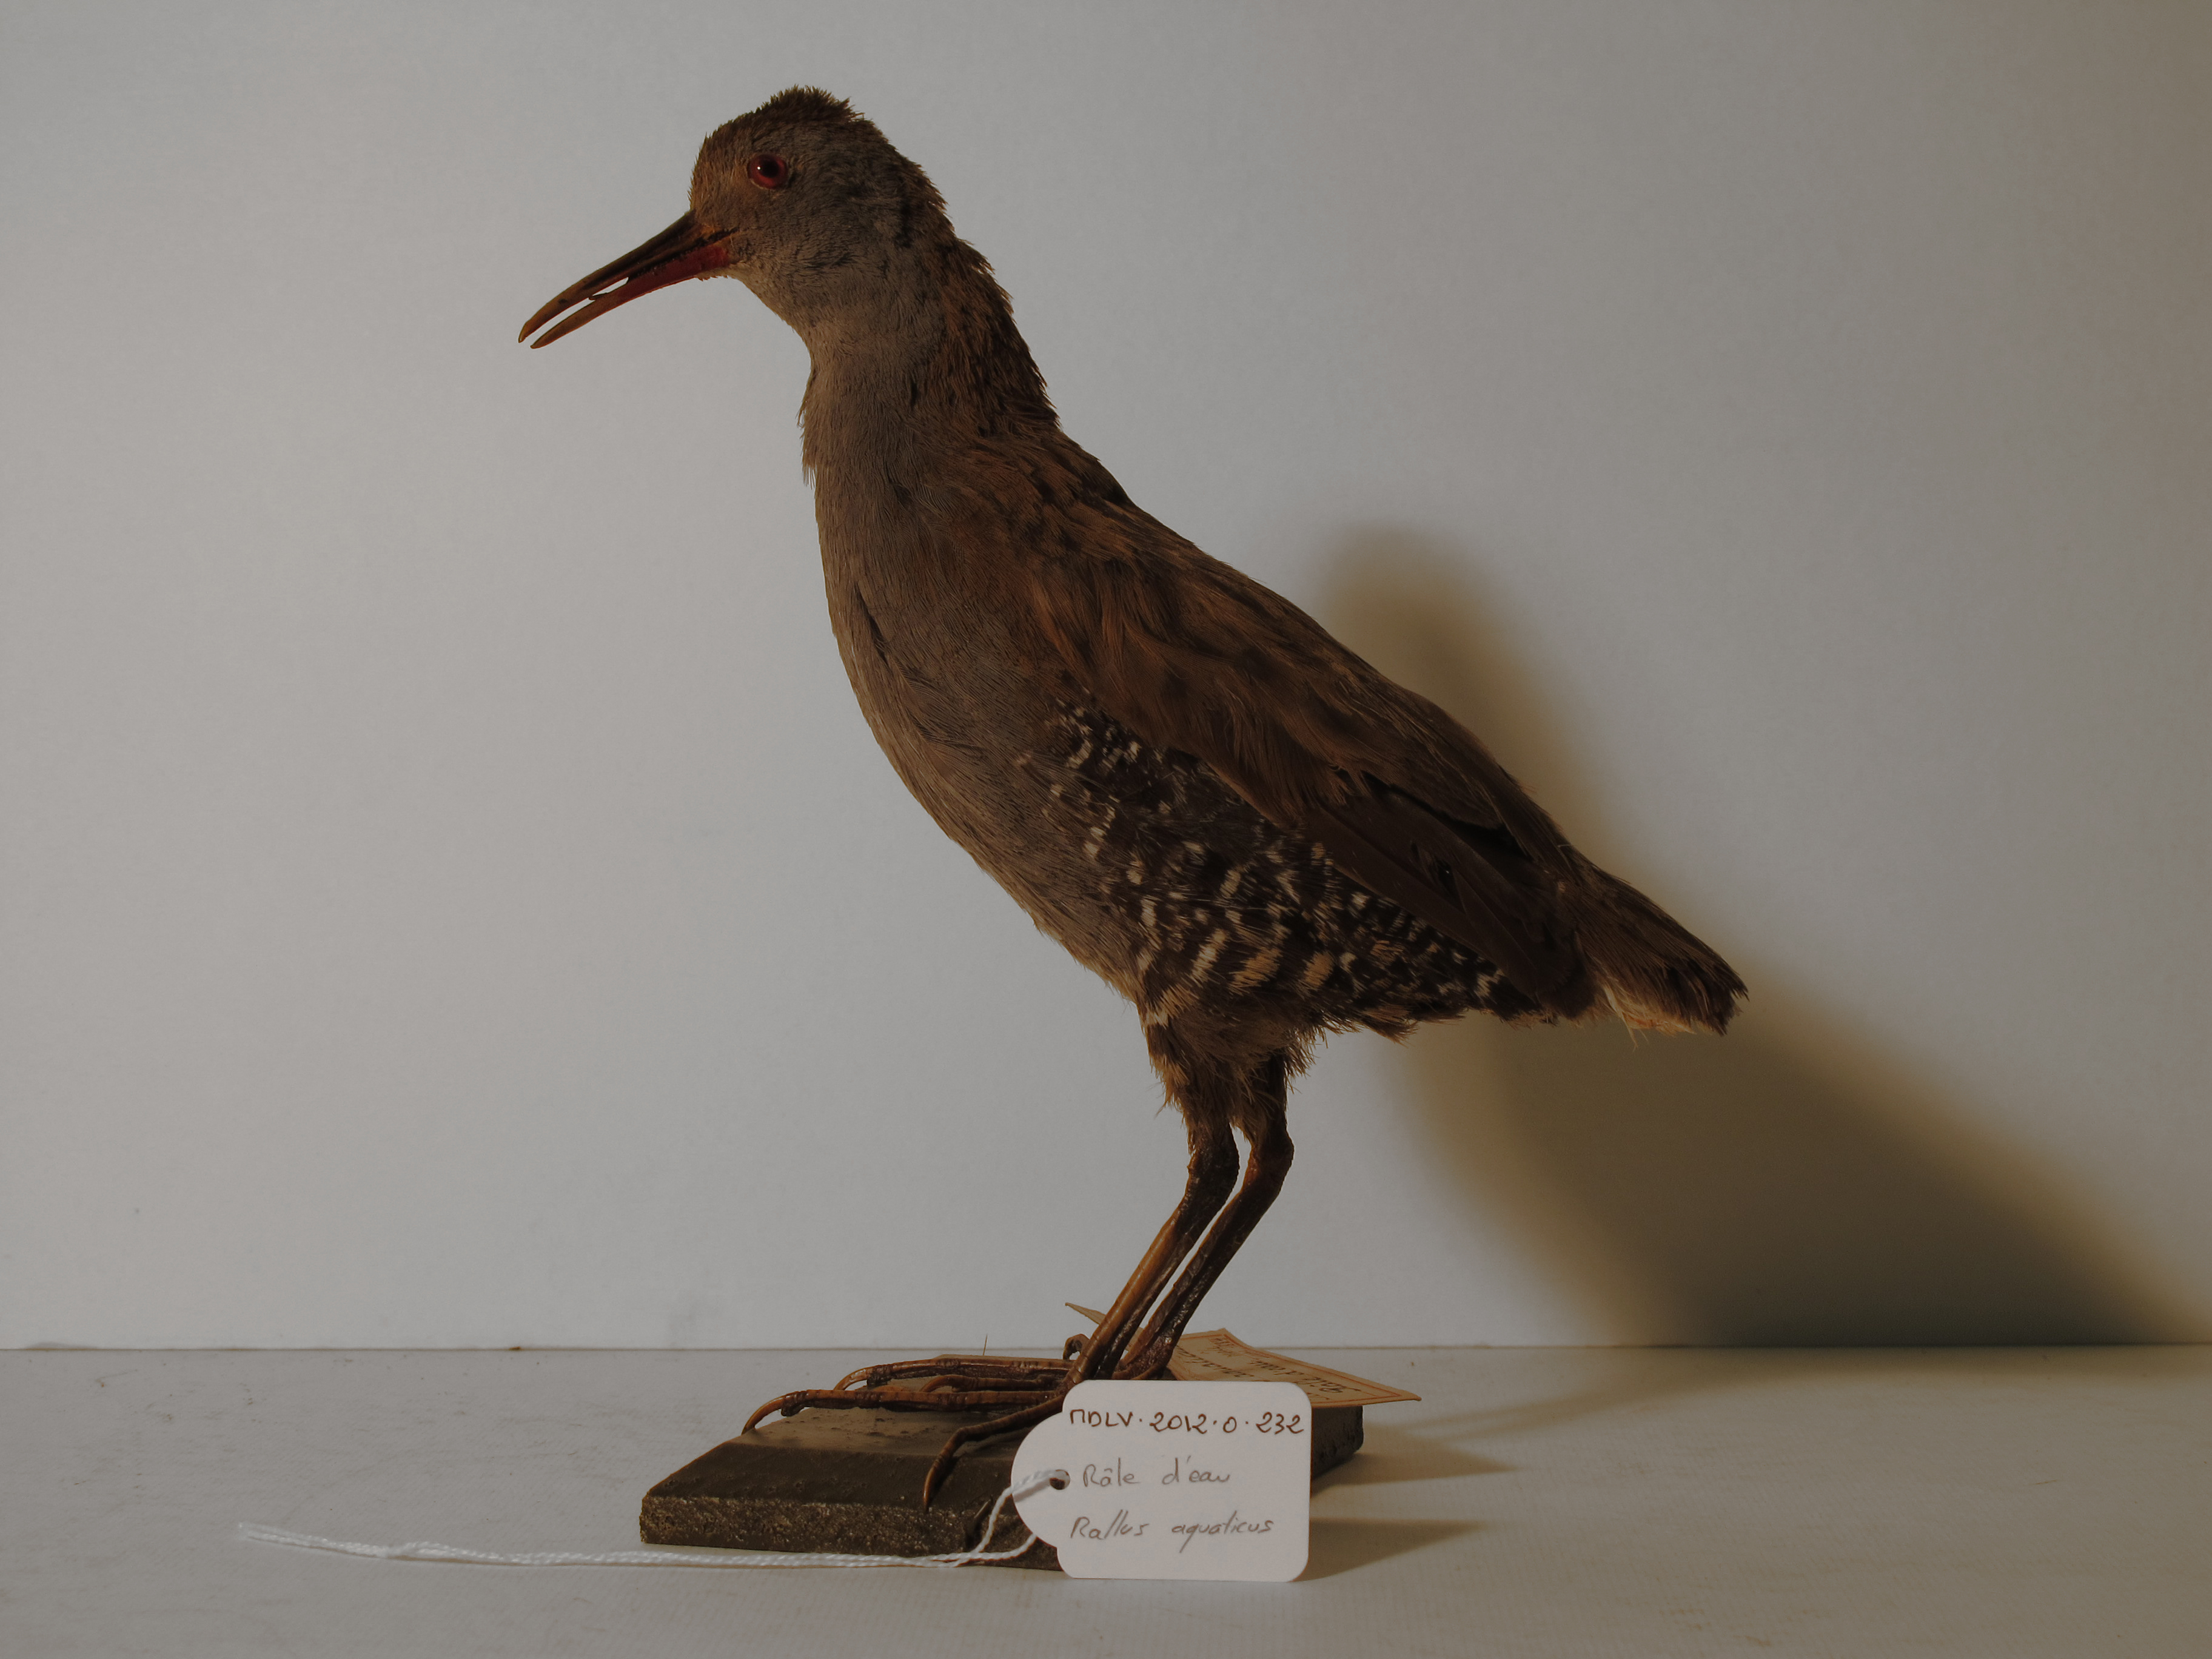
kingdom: Animalia
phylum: Chordata
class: Aves
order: Gruiformes
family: Rallidae
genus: Rallus
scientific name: Rallus aquaticus
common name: Water Rail
